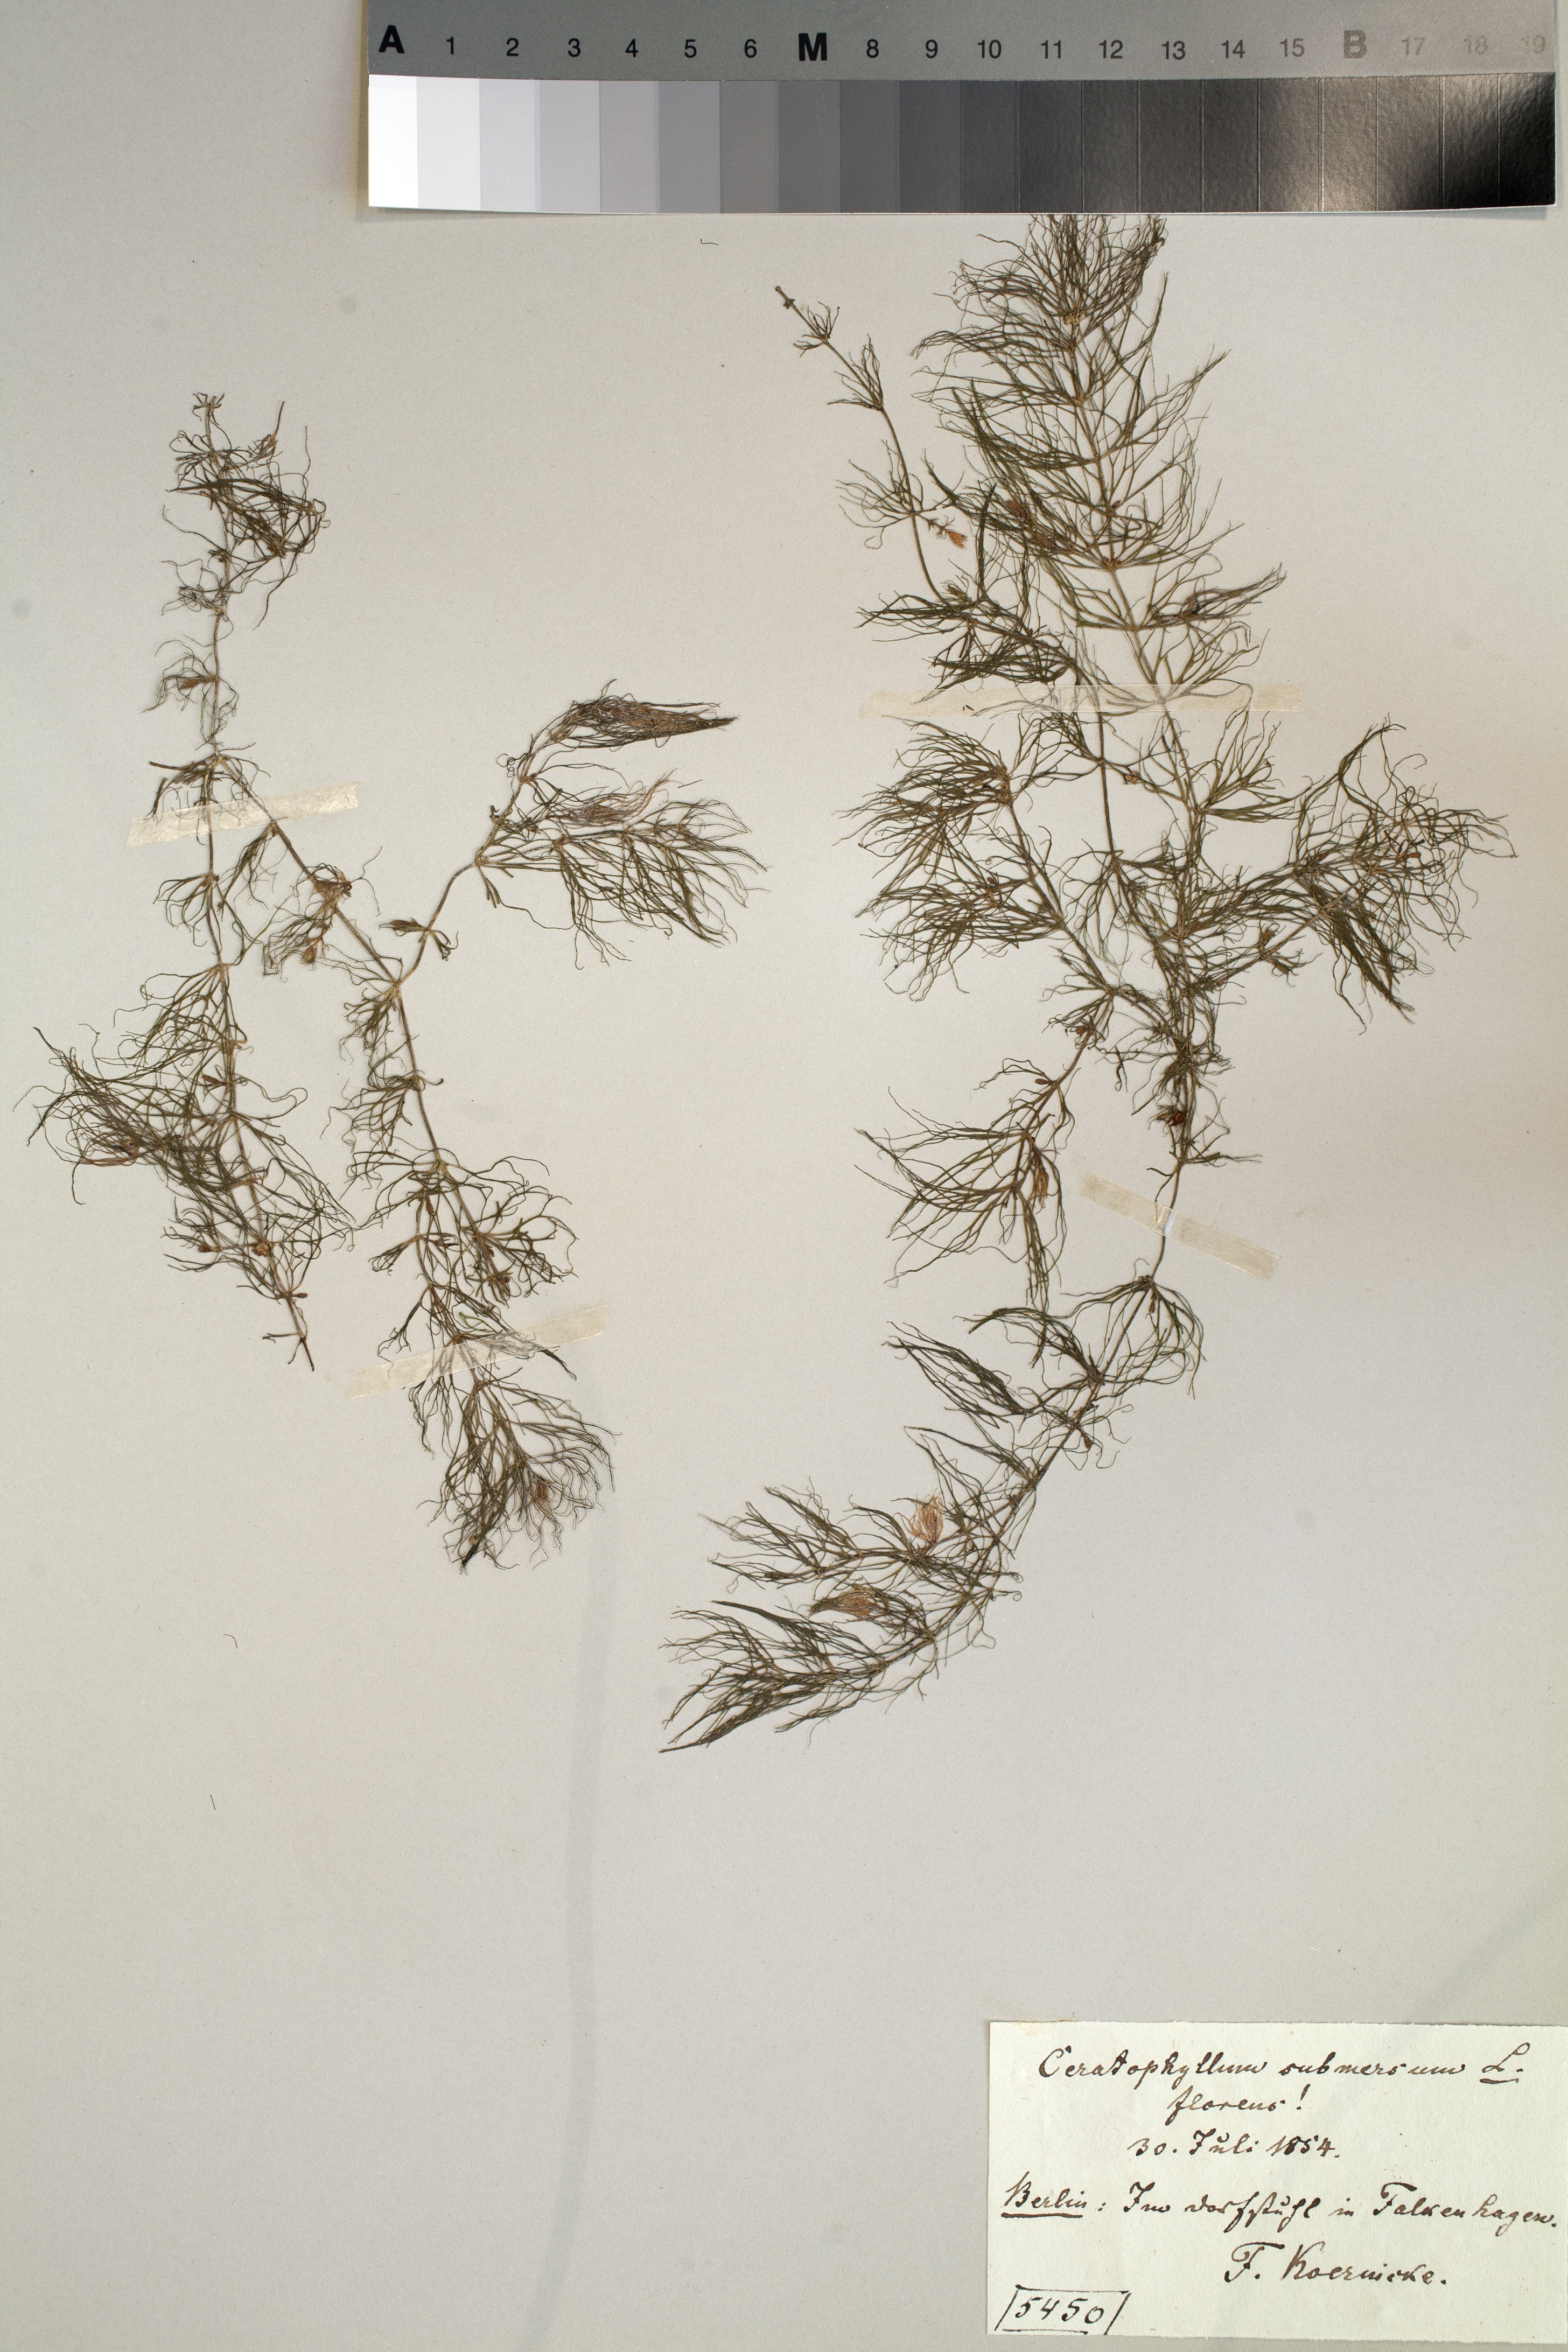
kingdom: Plantae
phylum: Tracheophyta
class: Magnoliopsida
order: Ceratophyllales
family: Ceratophyllaceae
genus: Ceratophyllum
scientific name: Ceratophyllum submersum
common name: Soft hornwort
